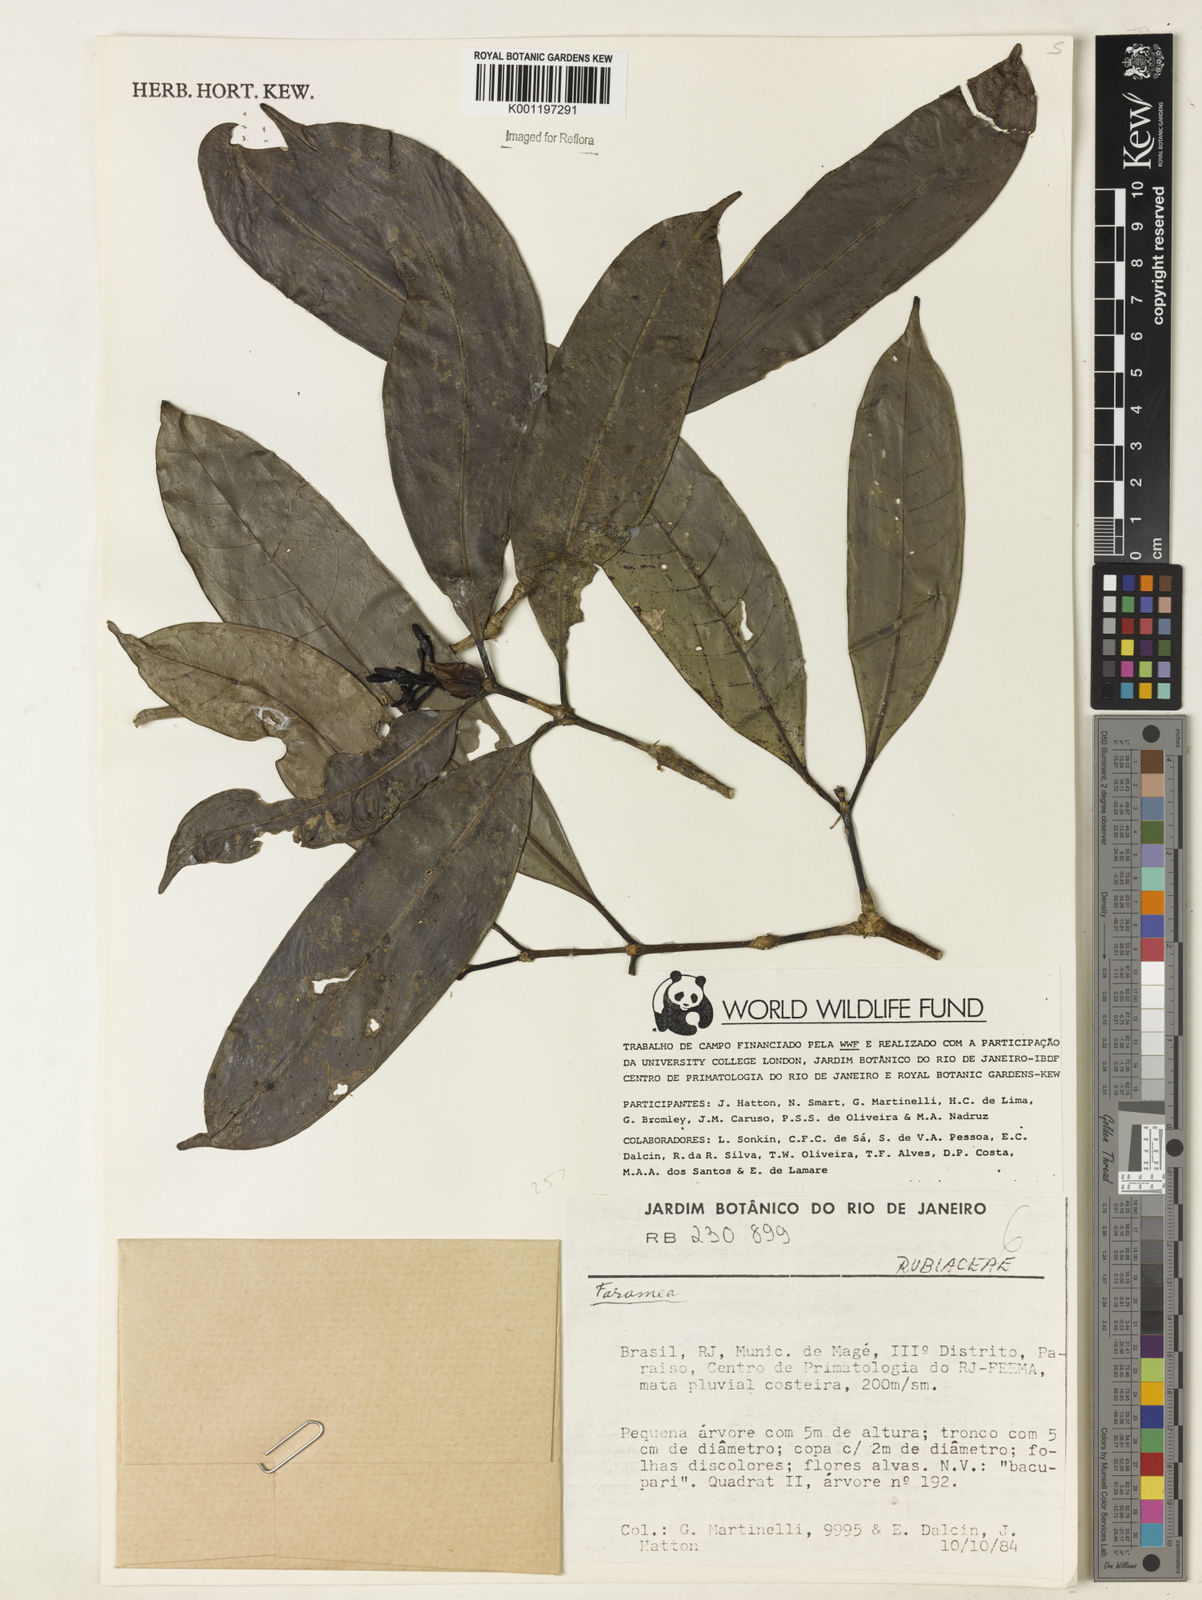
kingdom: Plantae
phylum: Tracheophyta
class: Magnoliopsida
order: Gentianales
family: Rubiaceae
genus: Faramea
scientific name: Faramea
